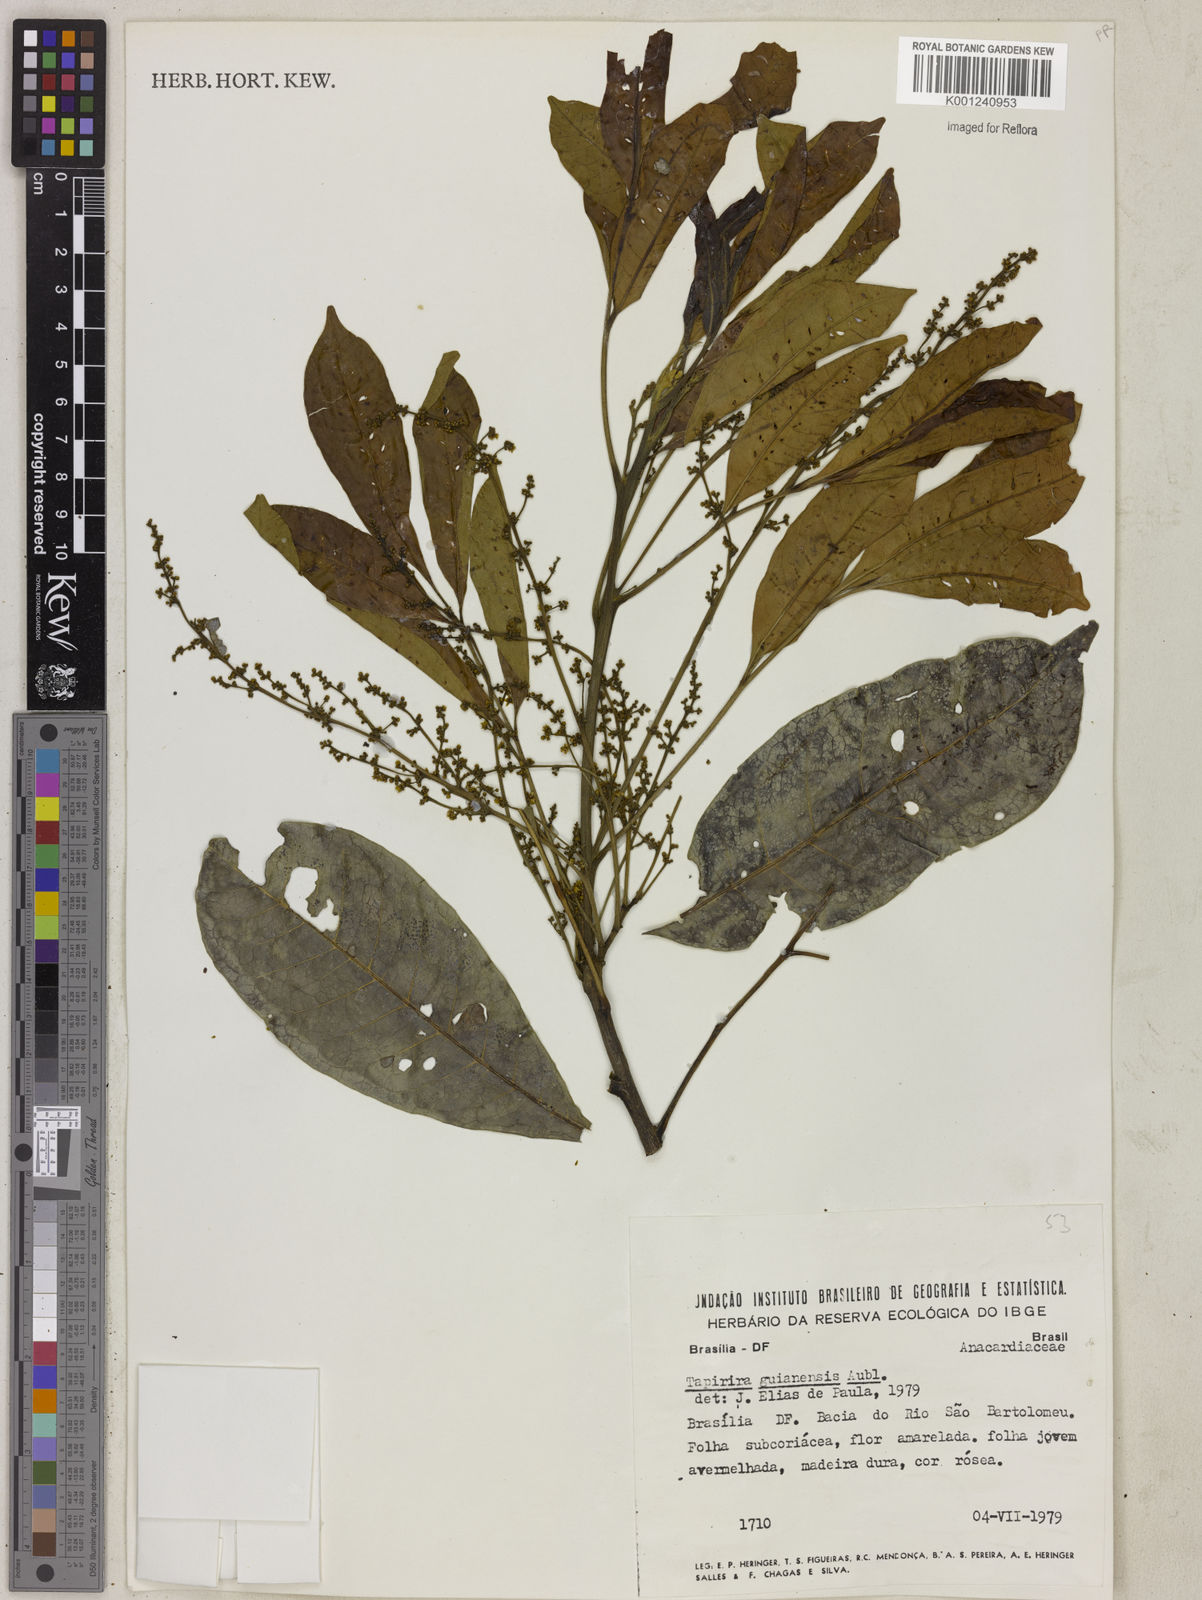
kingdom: Plantae
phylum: Tracheophyta
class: Magnoliopsida
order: Sapindales
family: Anacardiaceae
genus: Tapirira
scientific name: Tapirira guianensis
